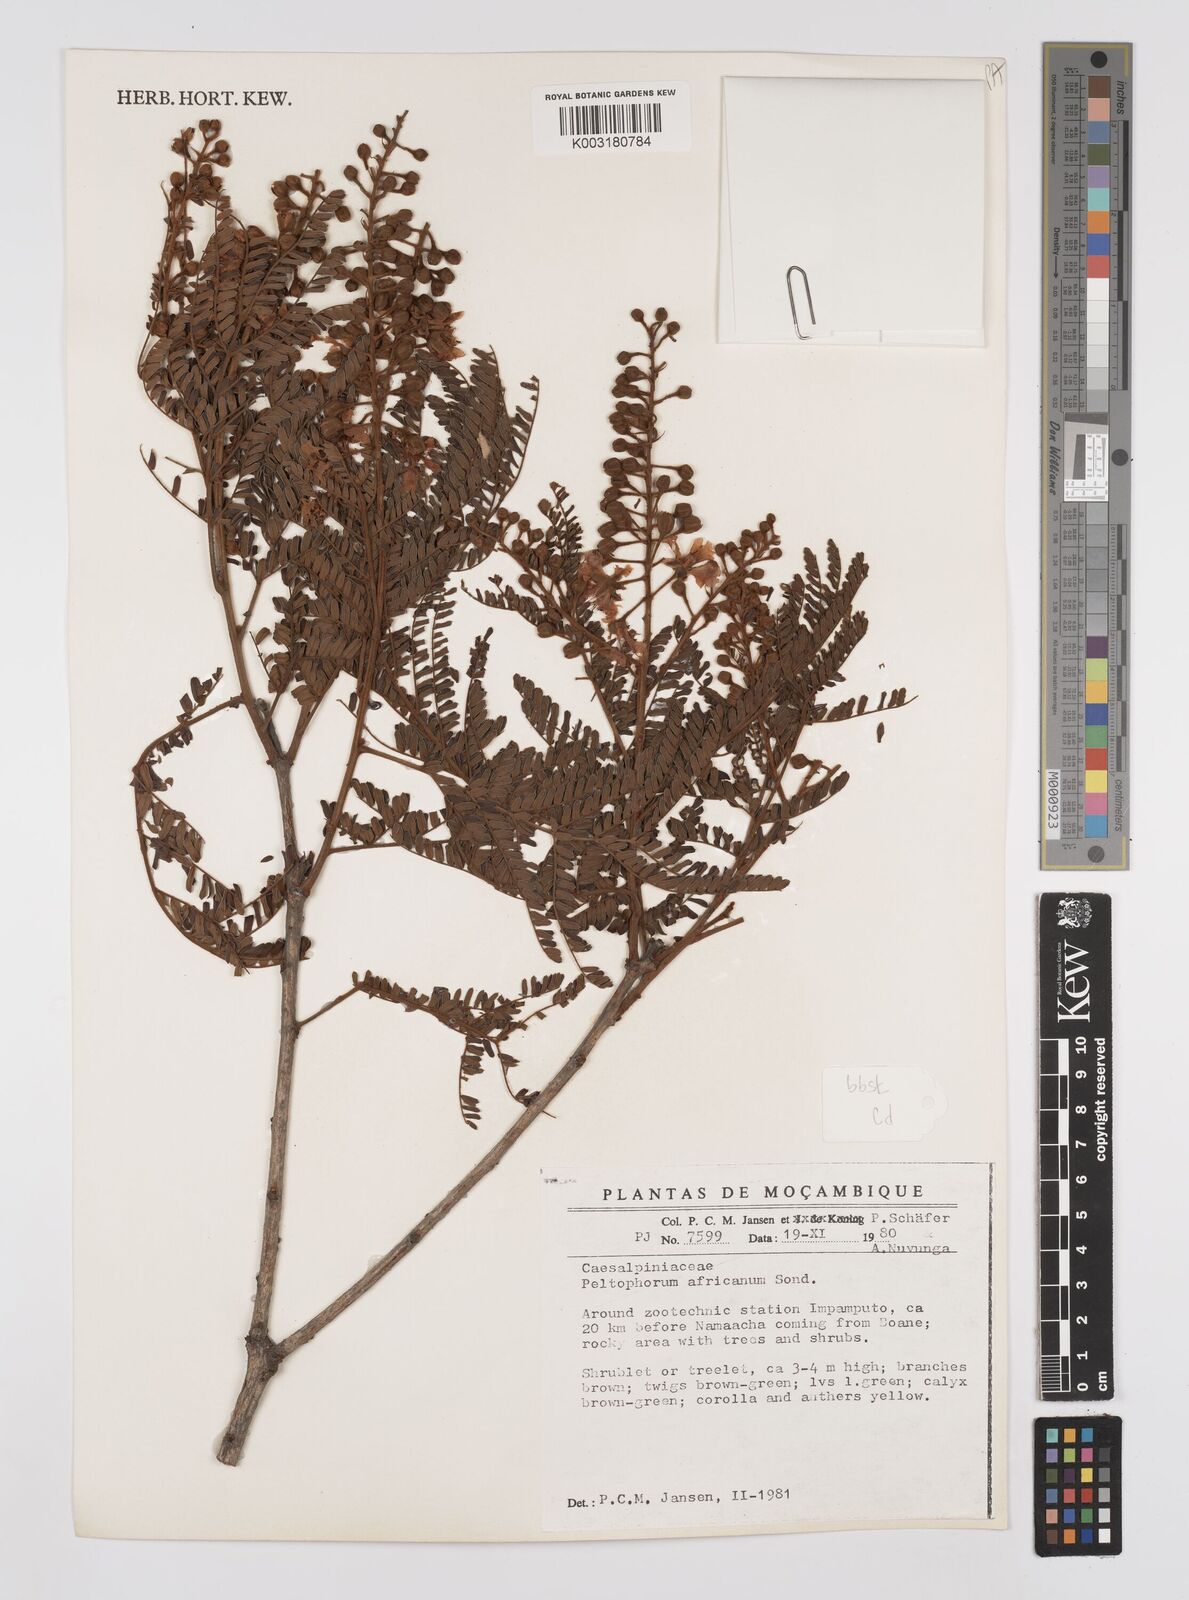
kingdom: Plantae
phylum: Tracheophyta
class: Magnoliopsida
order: Fabales
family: Fabaceae
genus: Peltophorum
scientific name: Peltophorum africanum
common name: African black wattle
